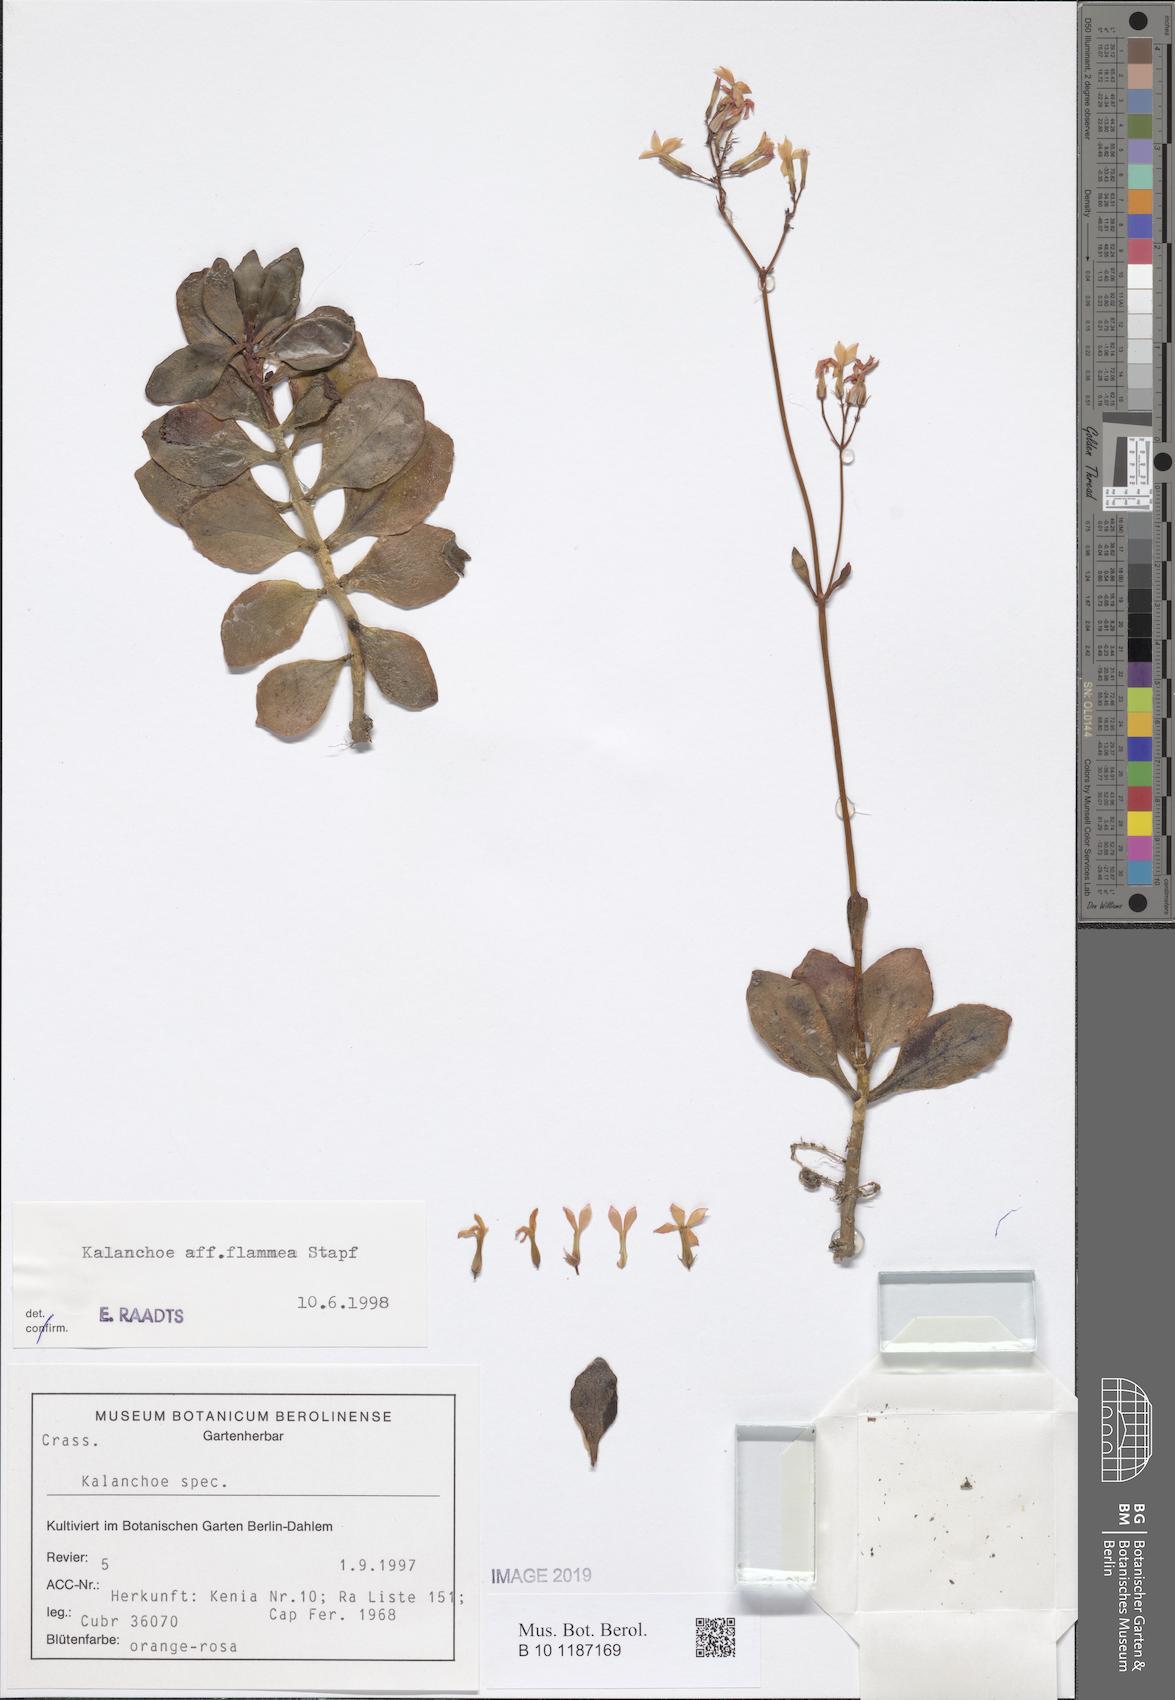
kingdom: Plantae
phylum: Tracheophyta
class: Magnoliopsida
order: Saxifragales
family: Crassulaceae
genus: Kalanchoe
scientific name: Kalanchoe glaucescens
